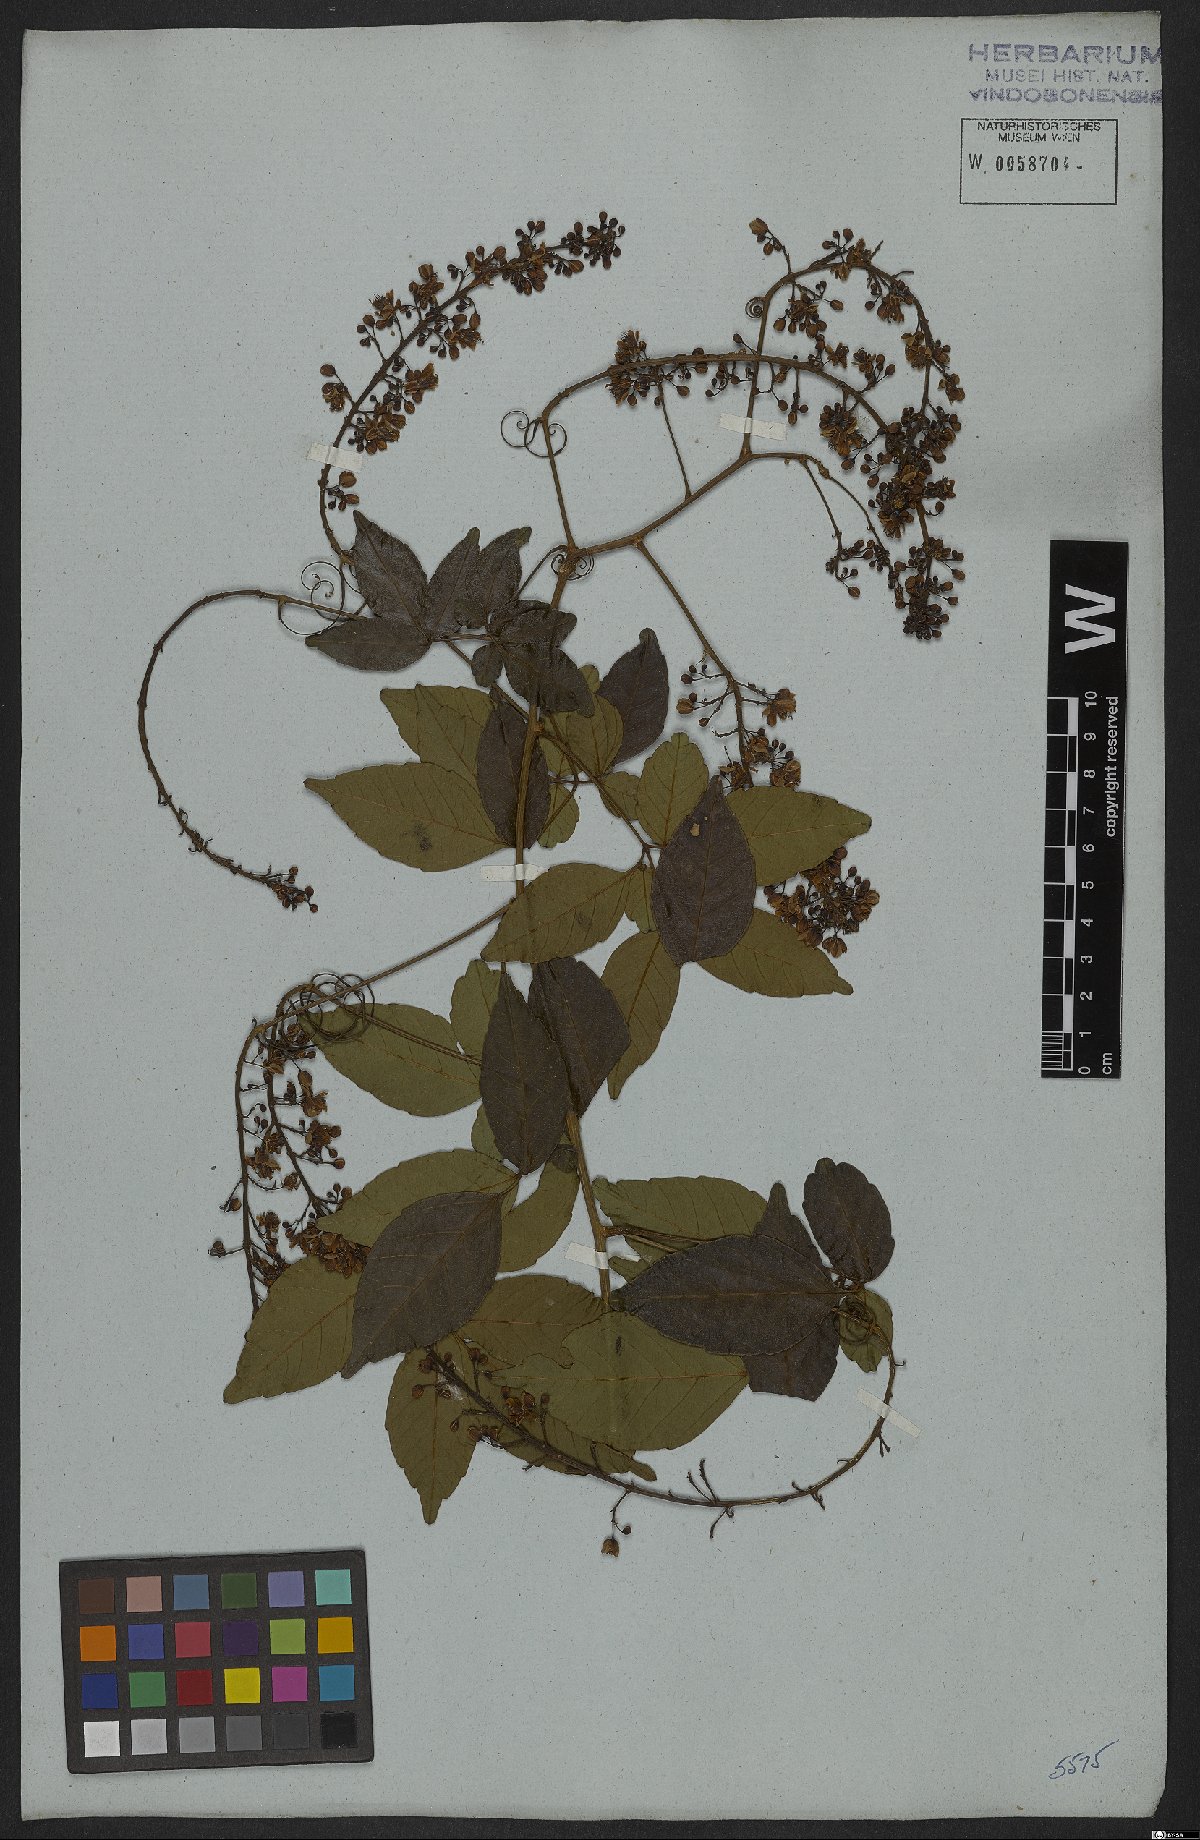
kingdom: Plantae
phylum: Tracheophyta
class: Magnoliopsida
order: Sapindales
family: Sapindaceae
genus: Serjania
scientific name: Serjania caracasana
